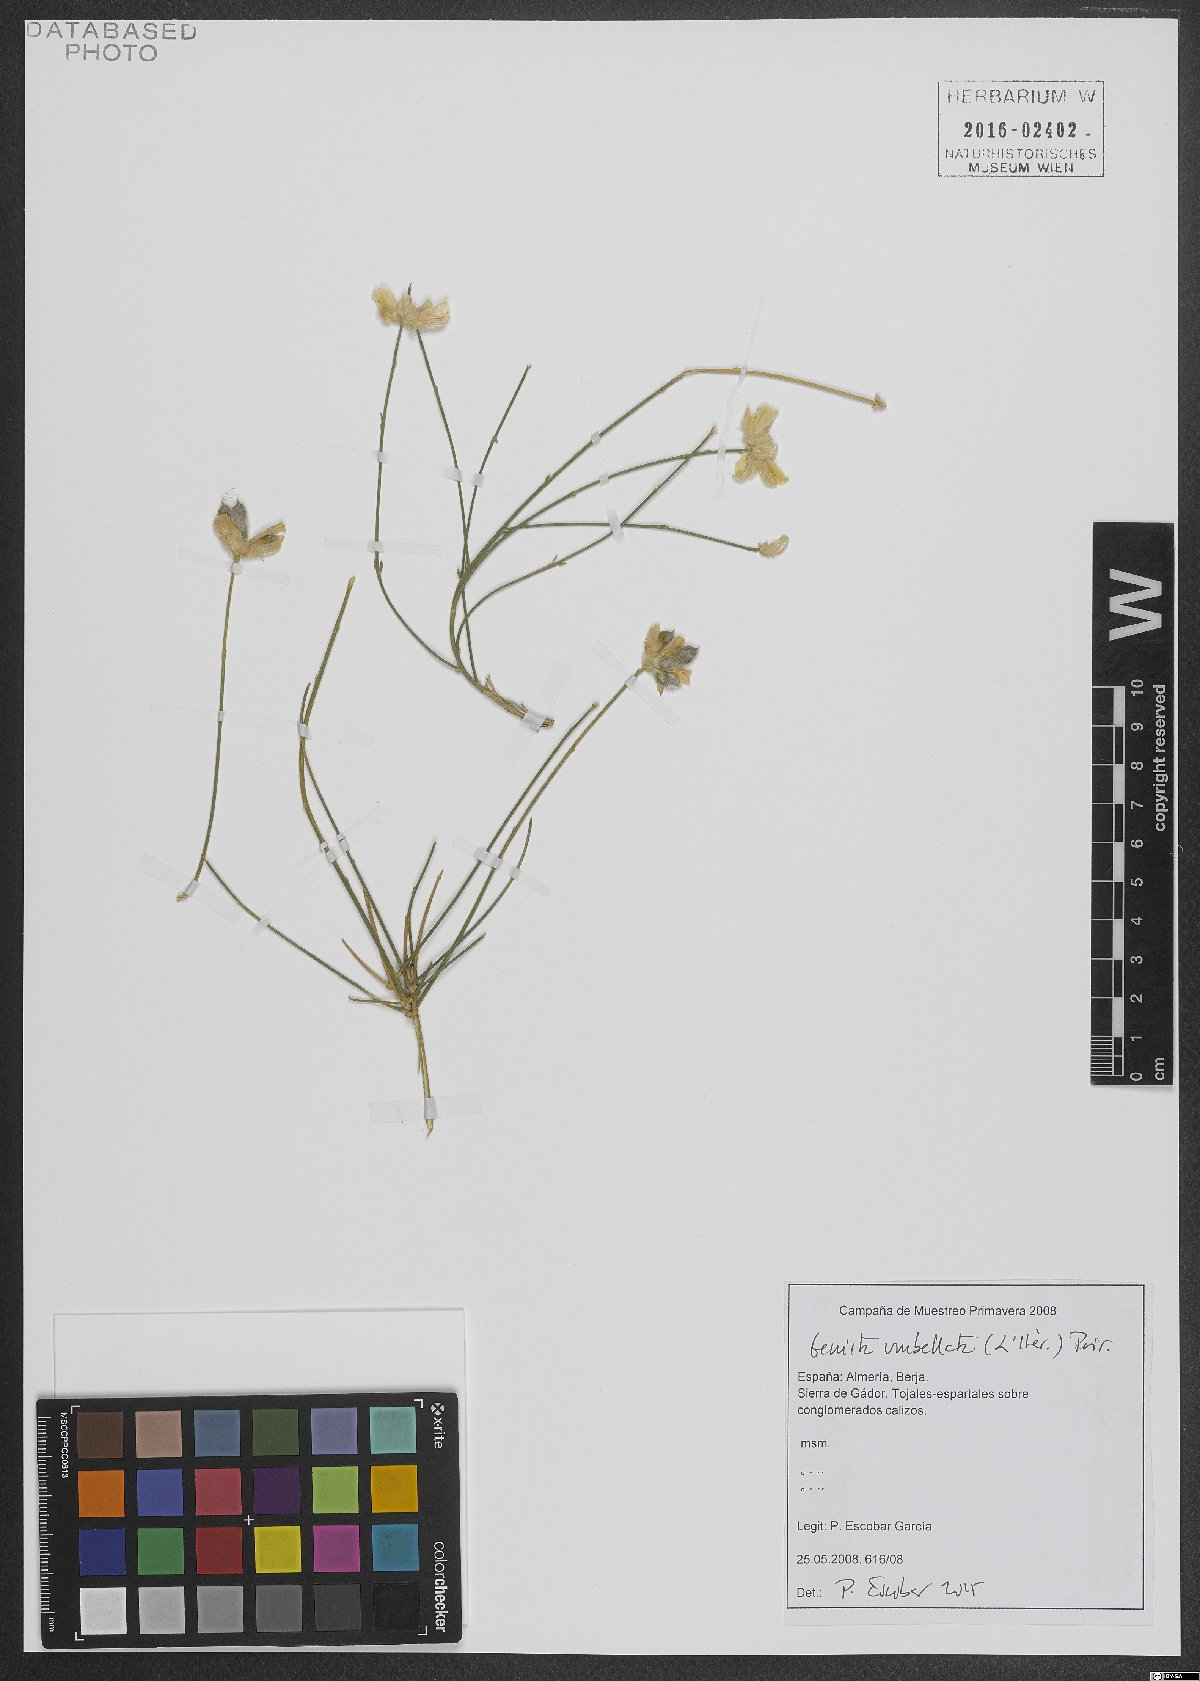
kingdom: Plantae
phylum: Tracheophyta
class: Magnoliopsida
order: Fabales
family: Fabaceae
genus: Genista
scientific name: Genista umbellata
